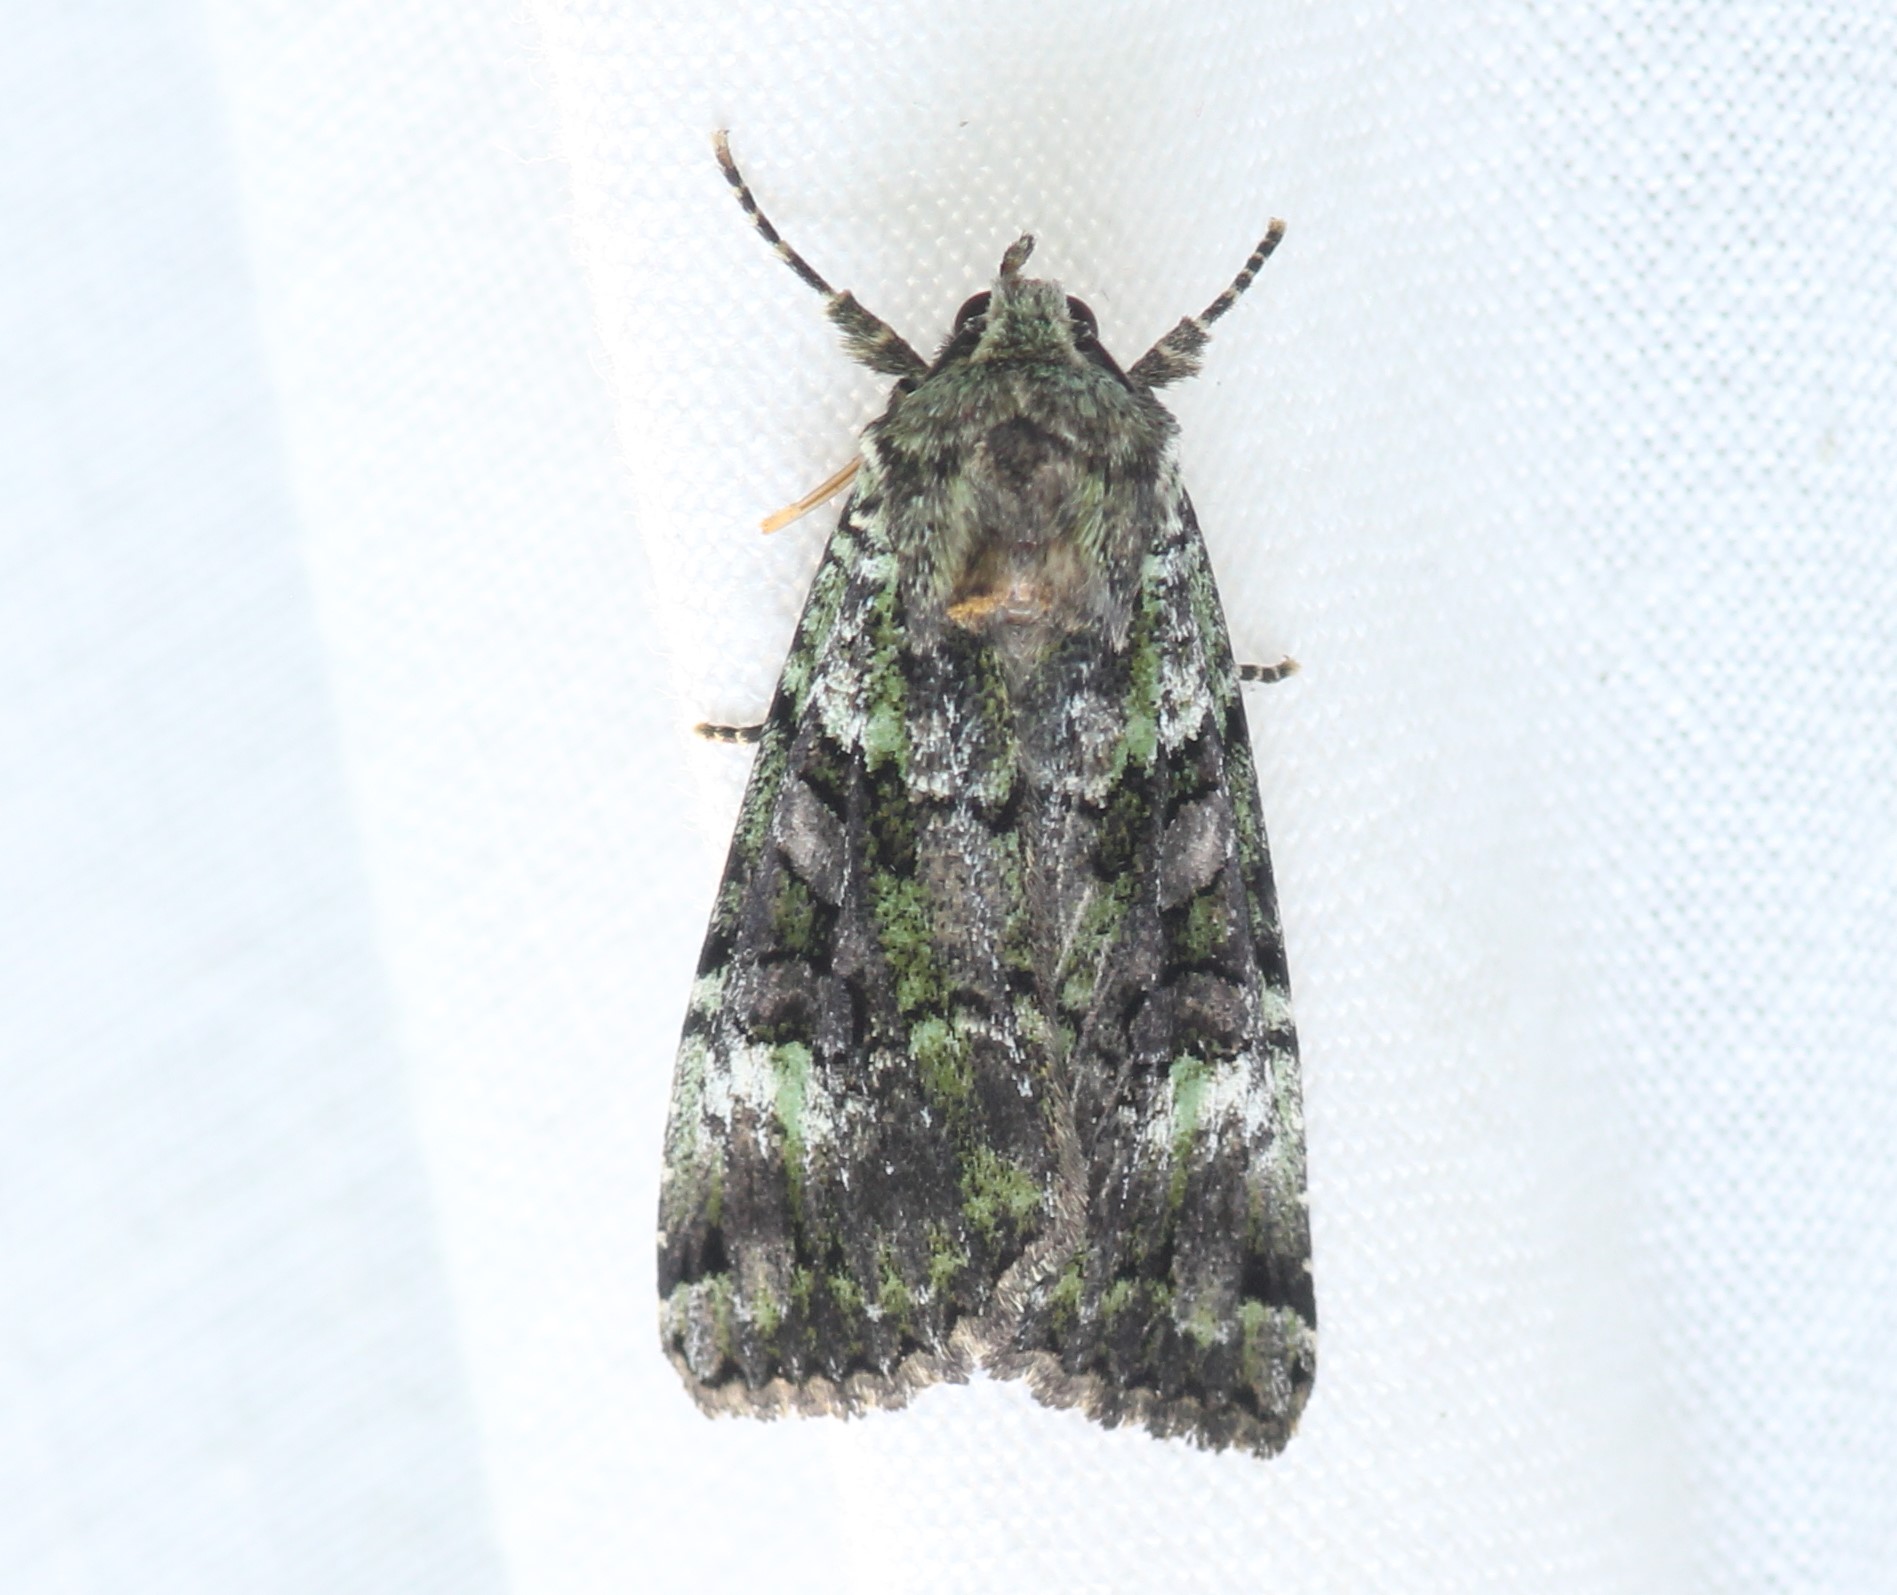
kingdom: Animalia
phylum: Arthropoda
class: Insecta
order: Lepidoptera
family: Noctuidae
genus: Anaplectoides
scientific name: Anaplectoides prasina
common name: Green arches
